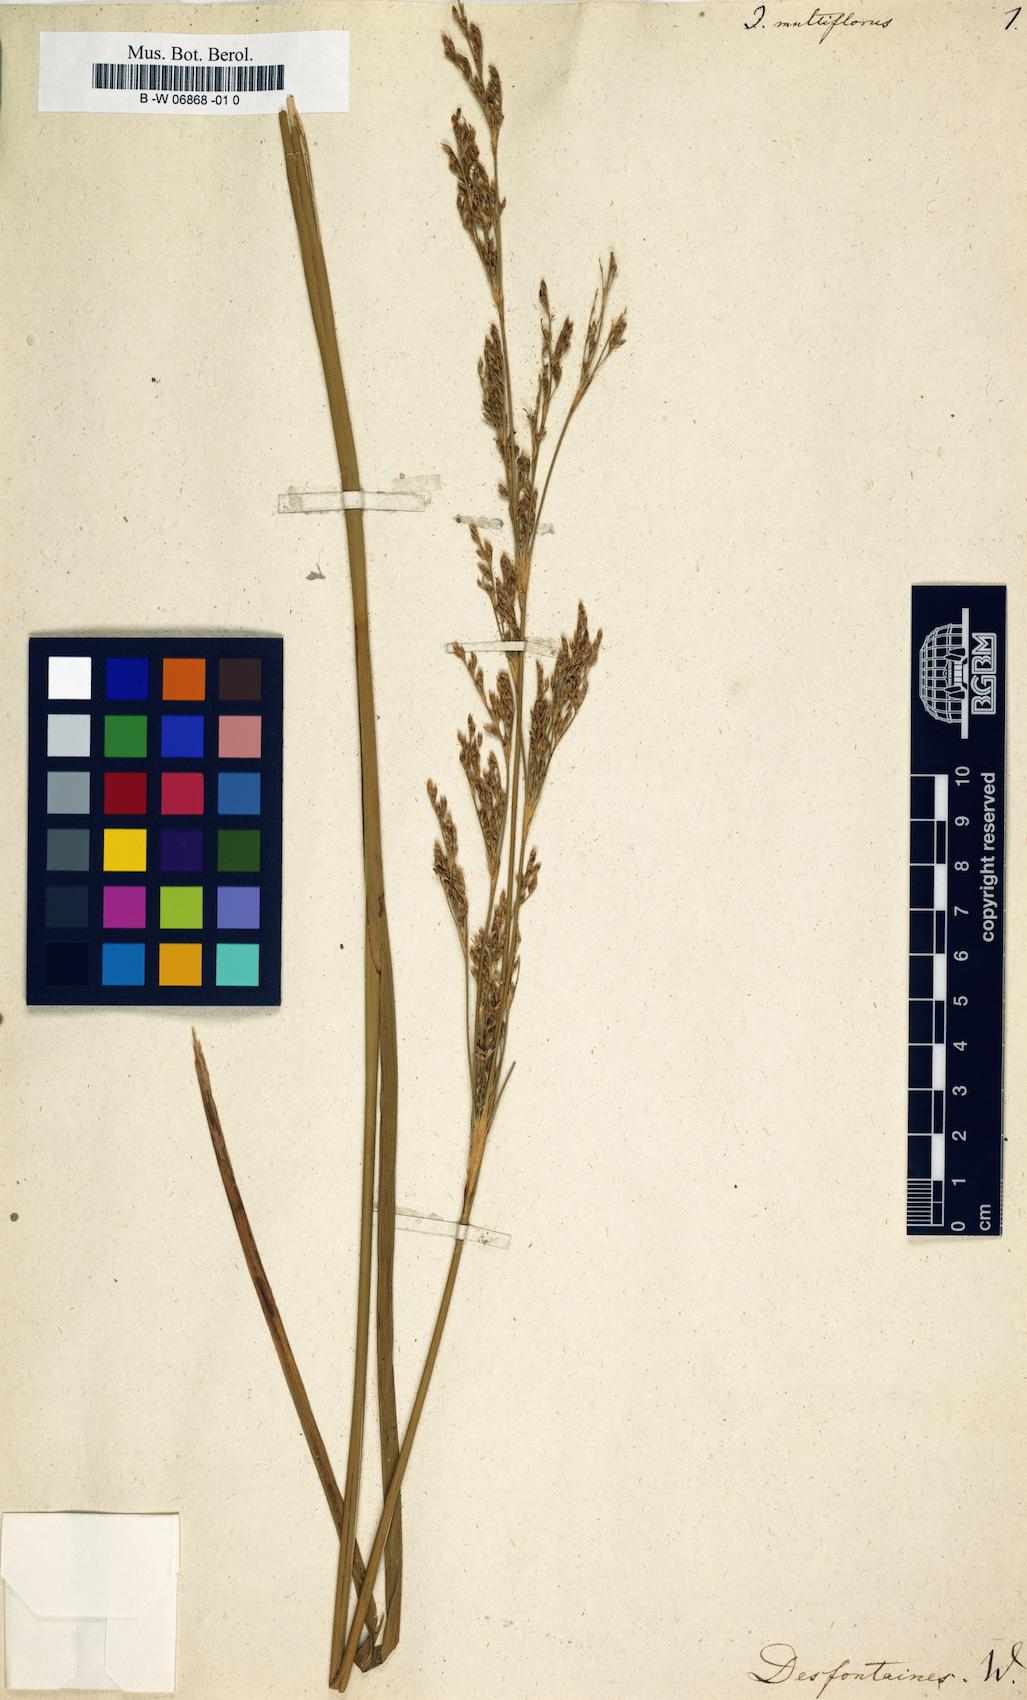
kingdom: Plantae
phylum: Tracheophyta
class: Liliopsida
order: Poales
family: Juncaceae
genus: Juncus
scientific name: Juncus multiflorus
